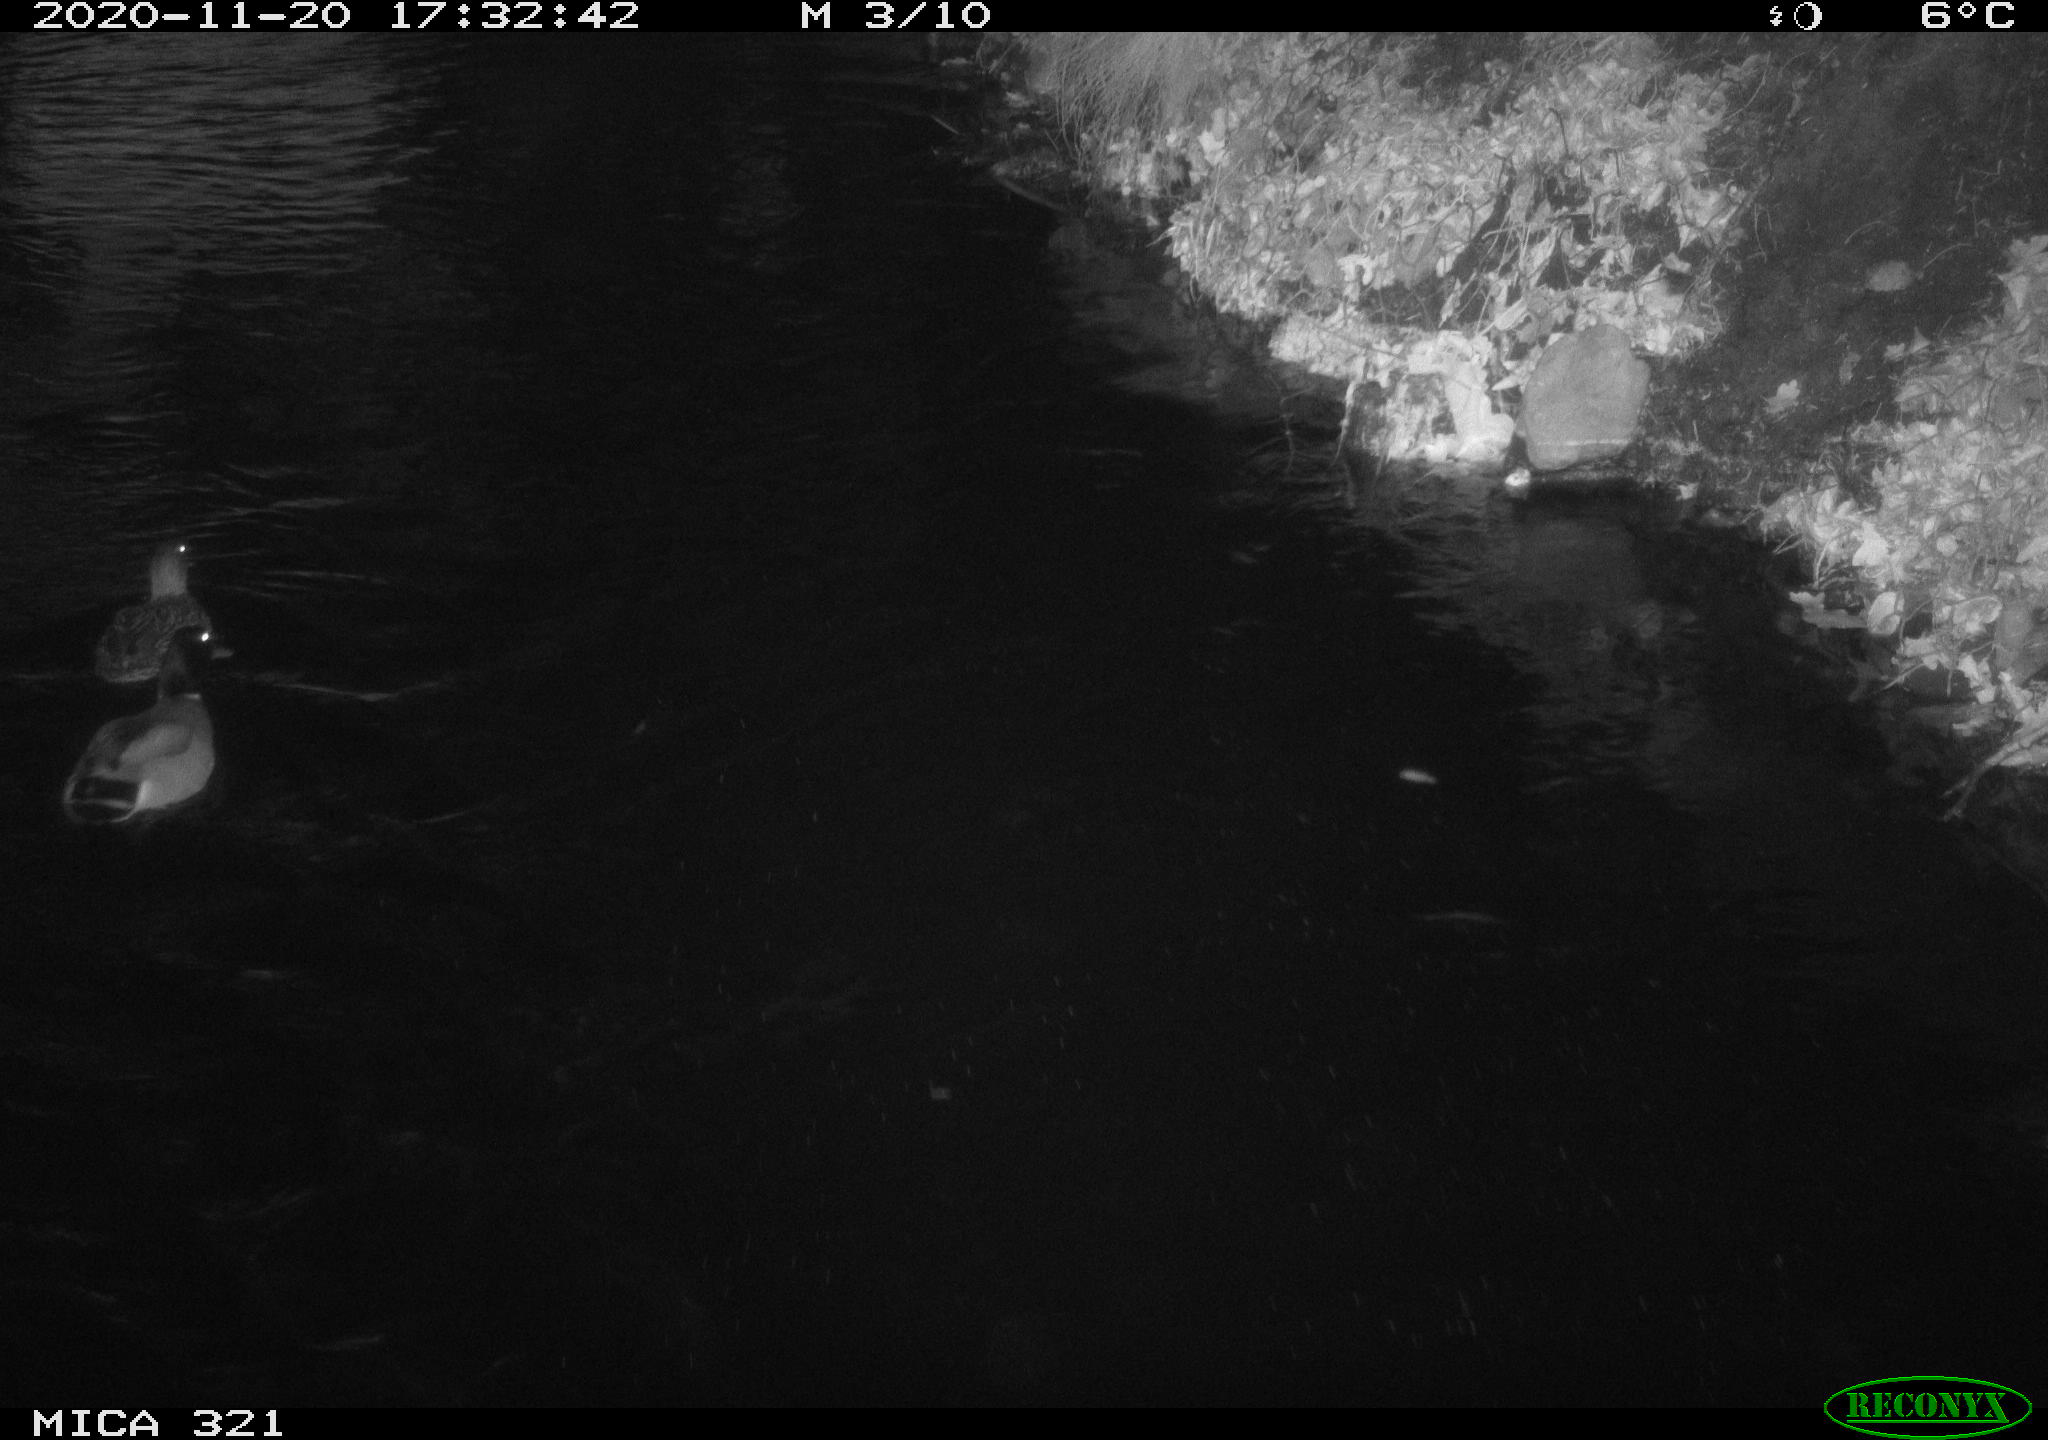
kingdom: Animalia
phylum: Chordata
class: Aves
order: Anseriformes
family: Anatidae
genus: Anas
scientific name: Anas platyrhynchos
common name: Mallard
